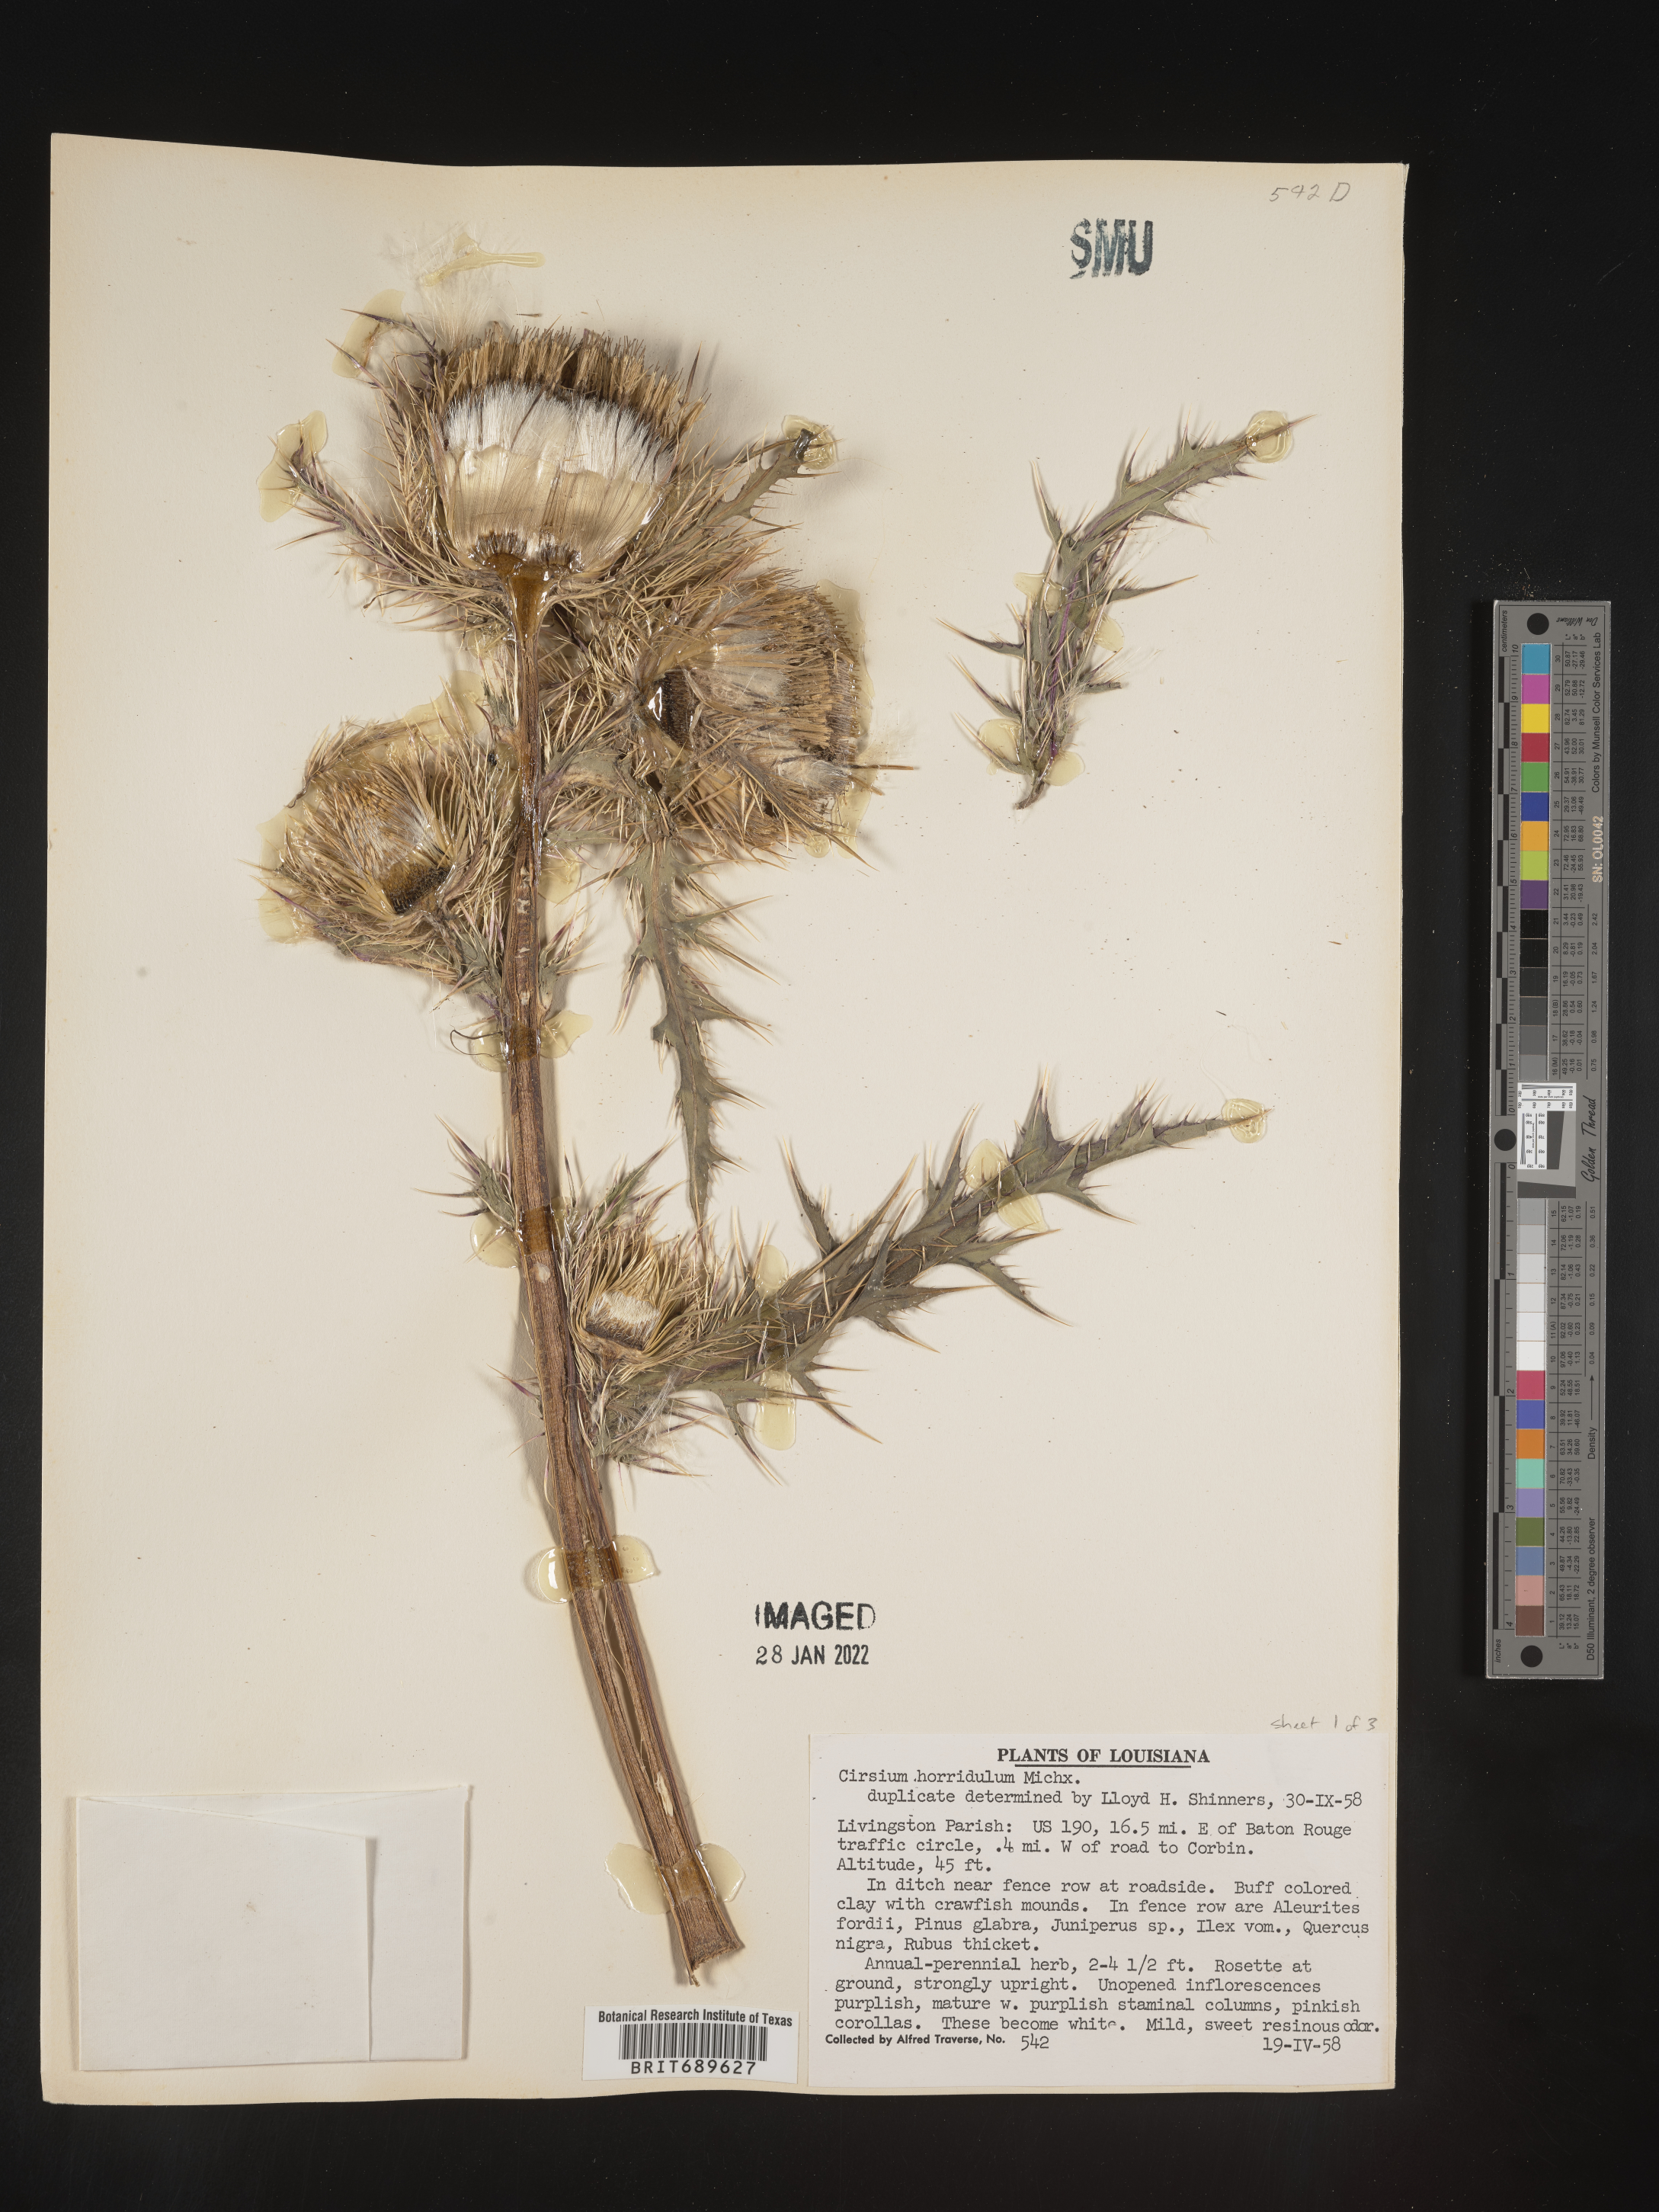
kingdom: Plantae
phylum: Tracheophyta
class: Magnoliopsida
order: Asterales
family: Asteraceae
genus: Cirsium
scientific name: Cirsium horridulum
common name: Bristly thistle
